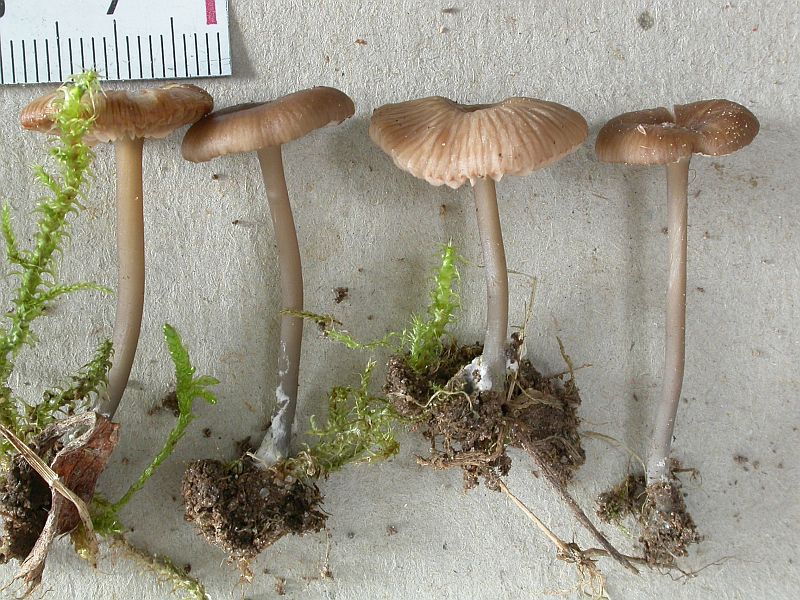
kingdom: Fungi
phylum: Basidiomycota
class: Agaricomycetes
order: Agaricales
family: Entolomataceae
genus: Entoloma
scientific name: Entoloma lividocyanulum
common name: mørkøjet rødblad
